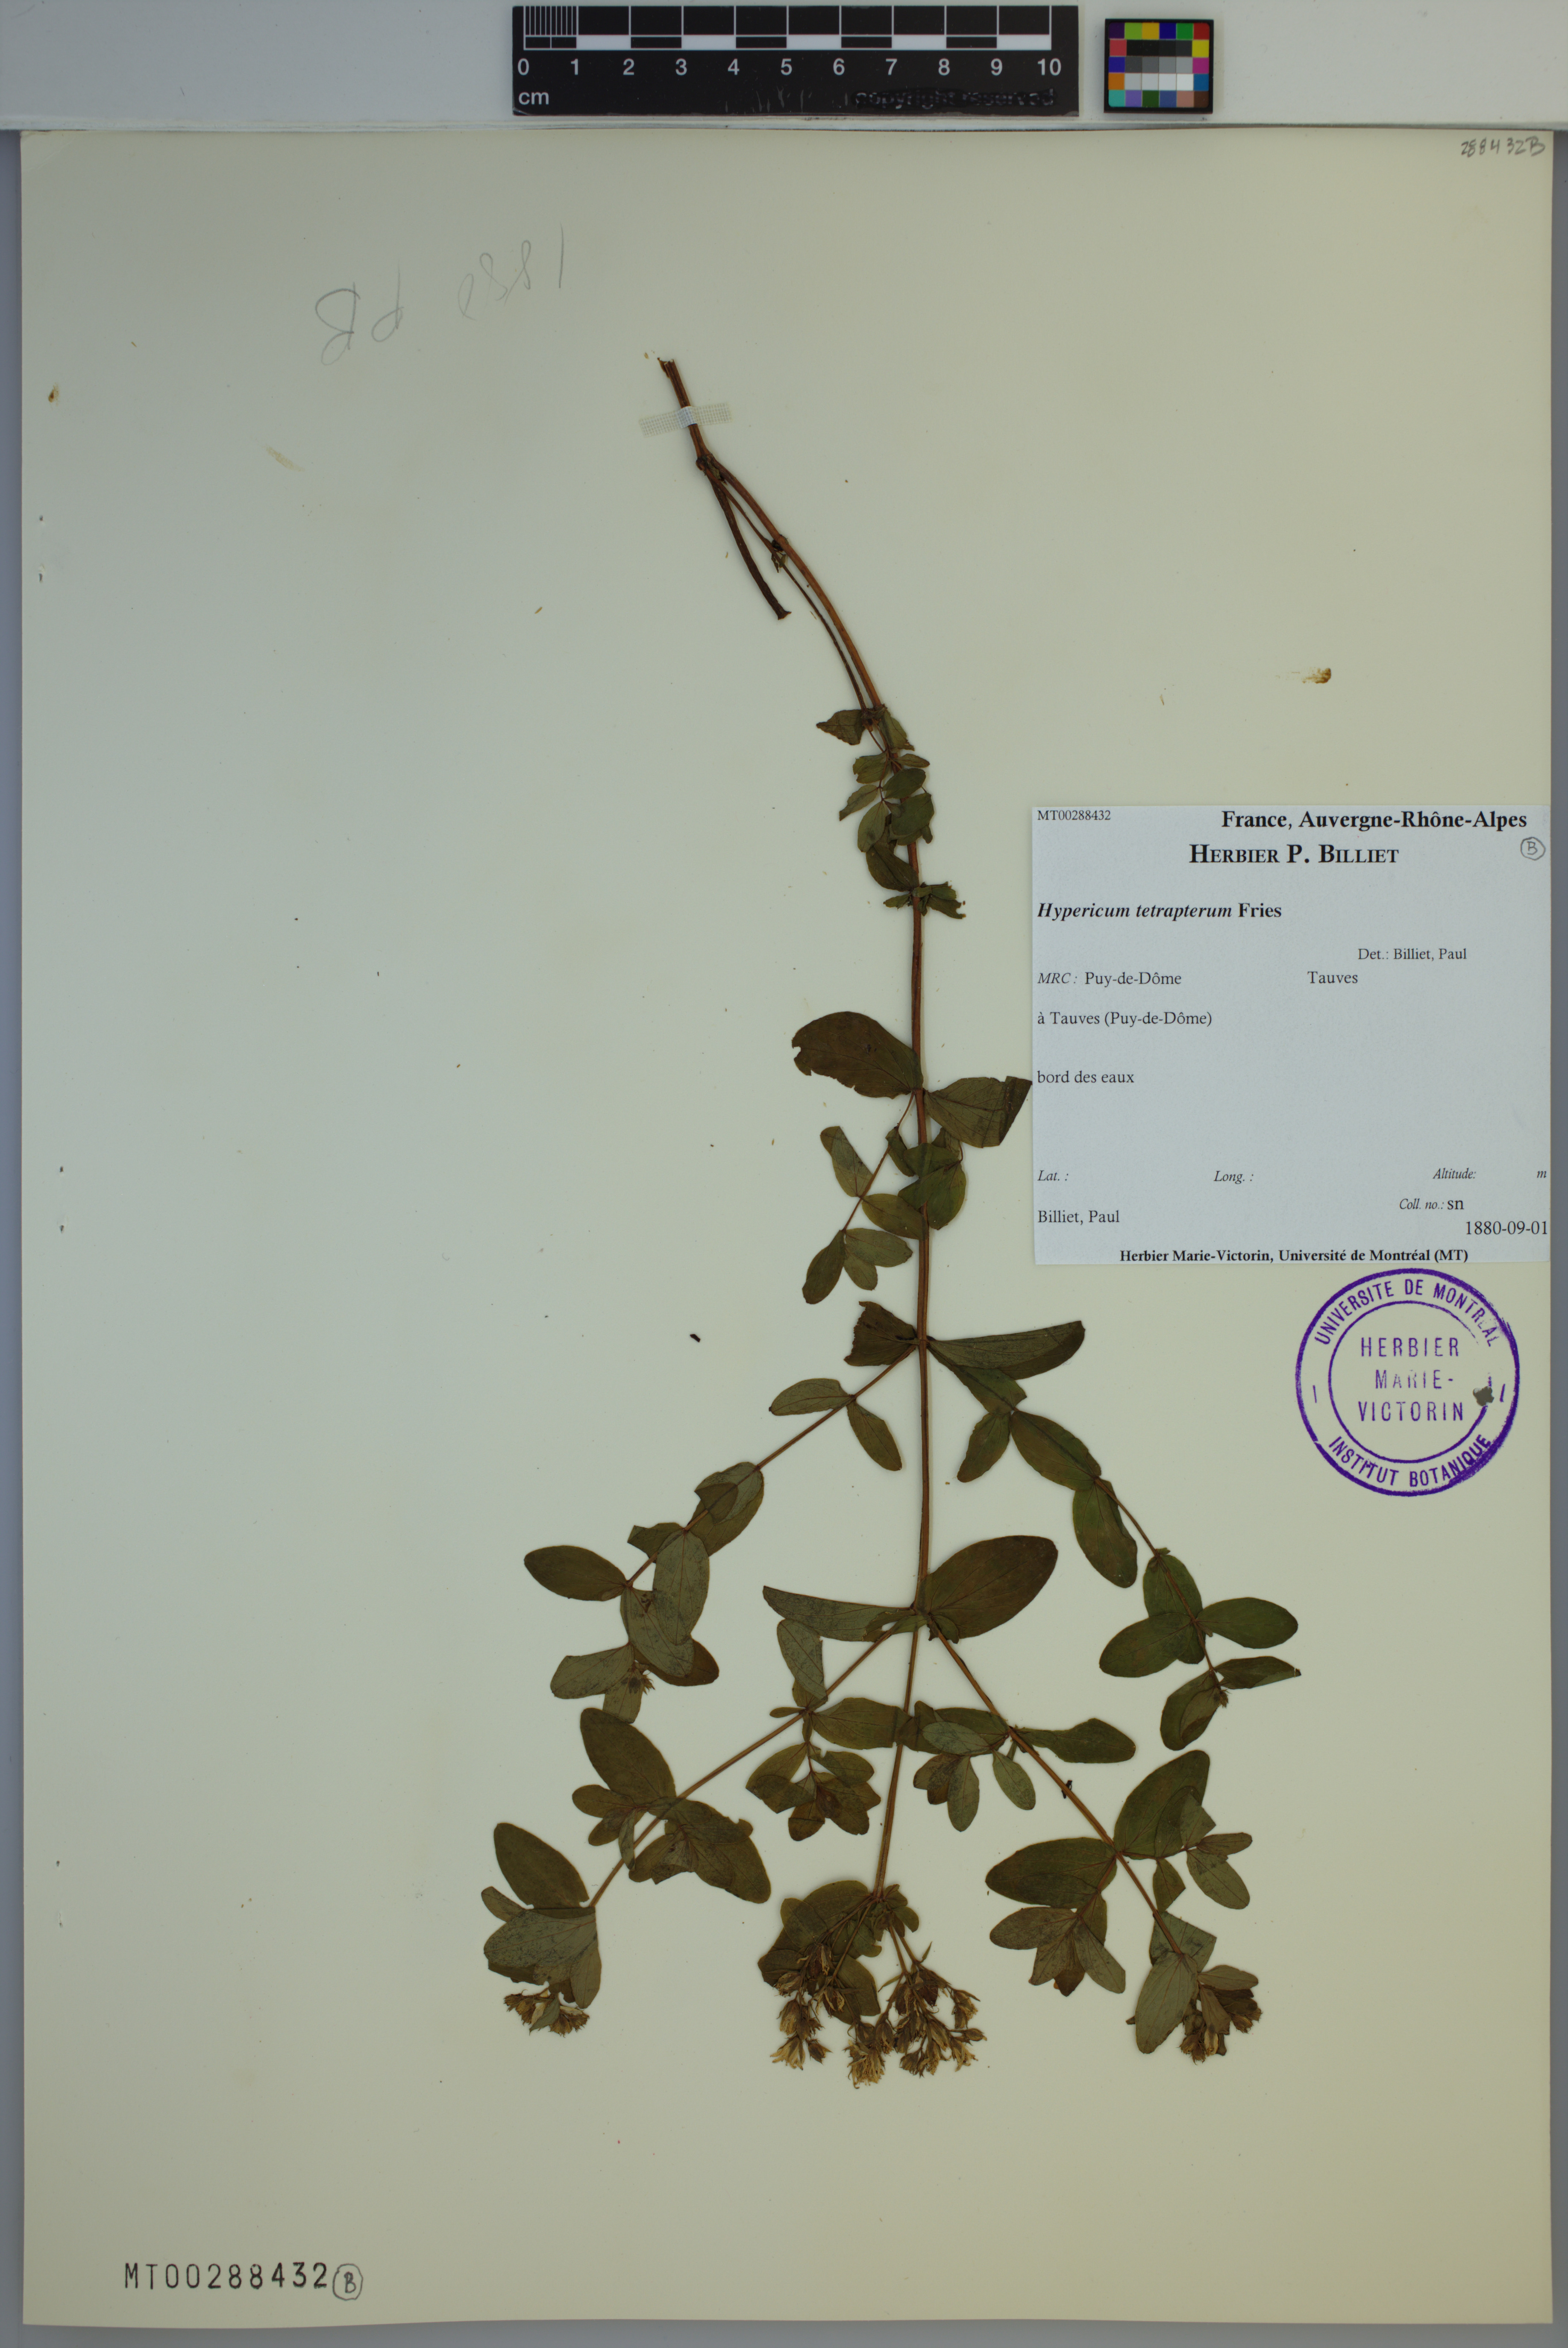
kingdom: Plantae
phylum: Tracheophyta
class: Magnoliopsida
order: Malpighiales
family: Hypericaceae
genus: Hypericum
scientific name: Hypericum tetrapterum
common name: Square-stalked st. john's-wort
